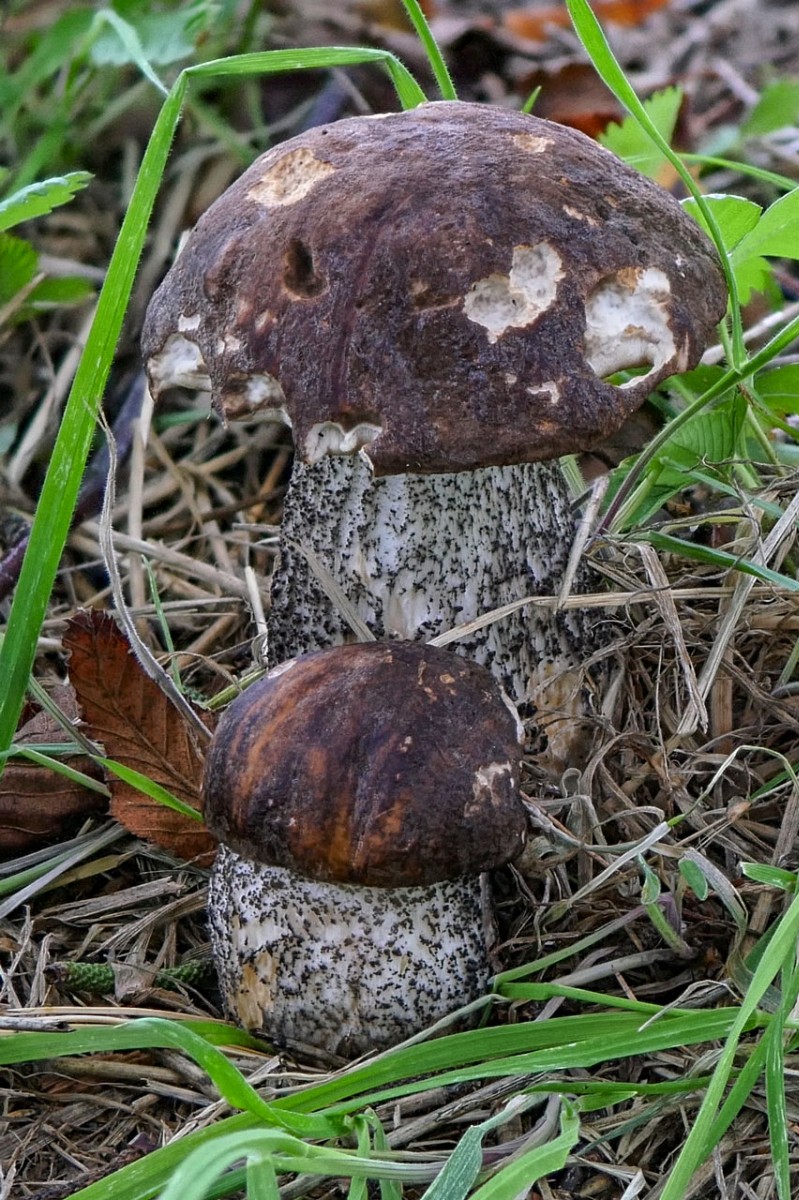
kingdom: Fungi
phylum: Basidiomycota
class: Agaricomycetes
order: Boletales
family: Boletaceae
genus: Leccinum
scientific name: Leccinum scabrum
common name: brun skælrørhat
